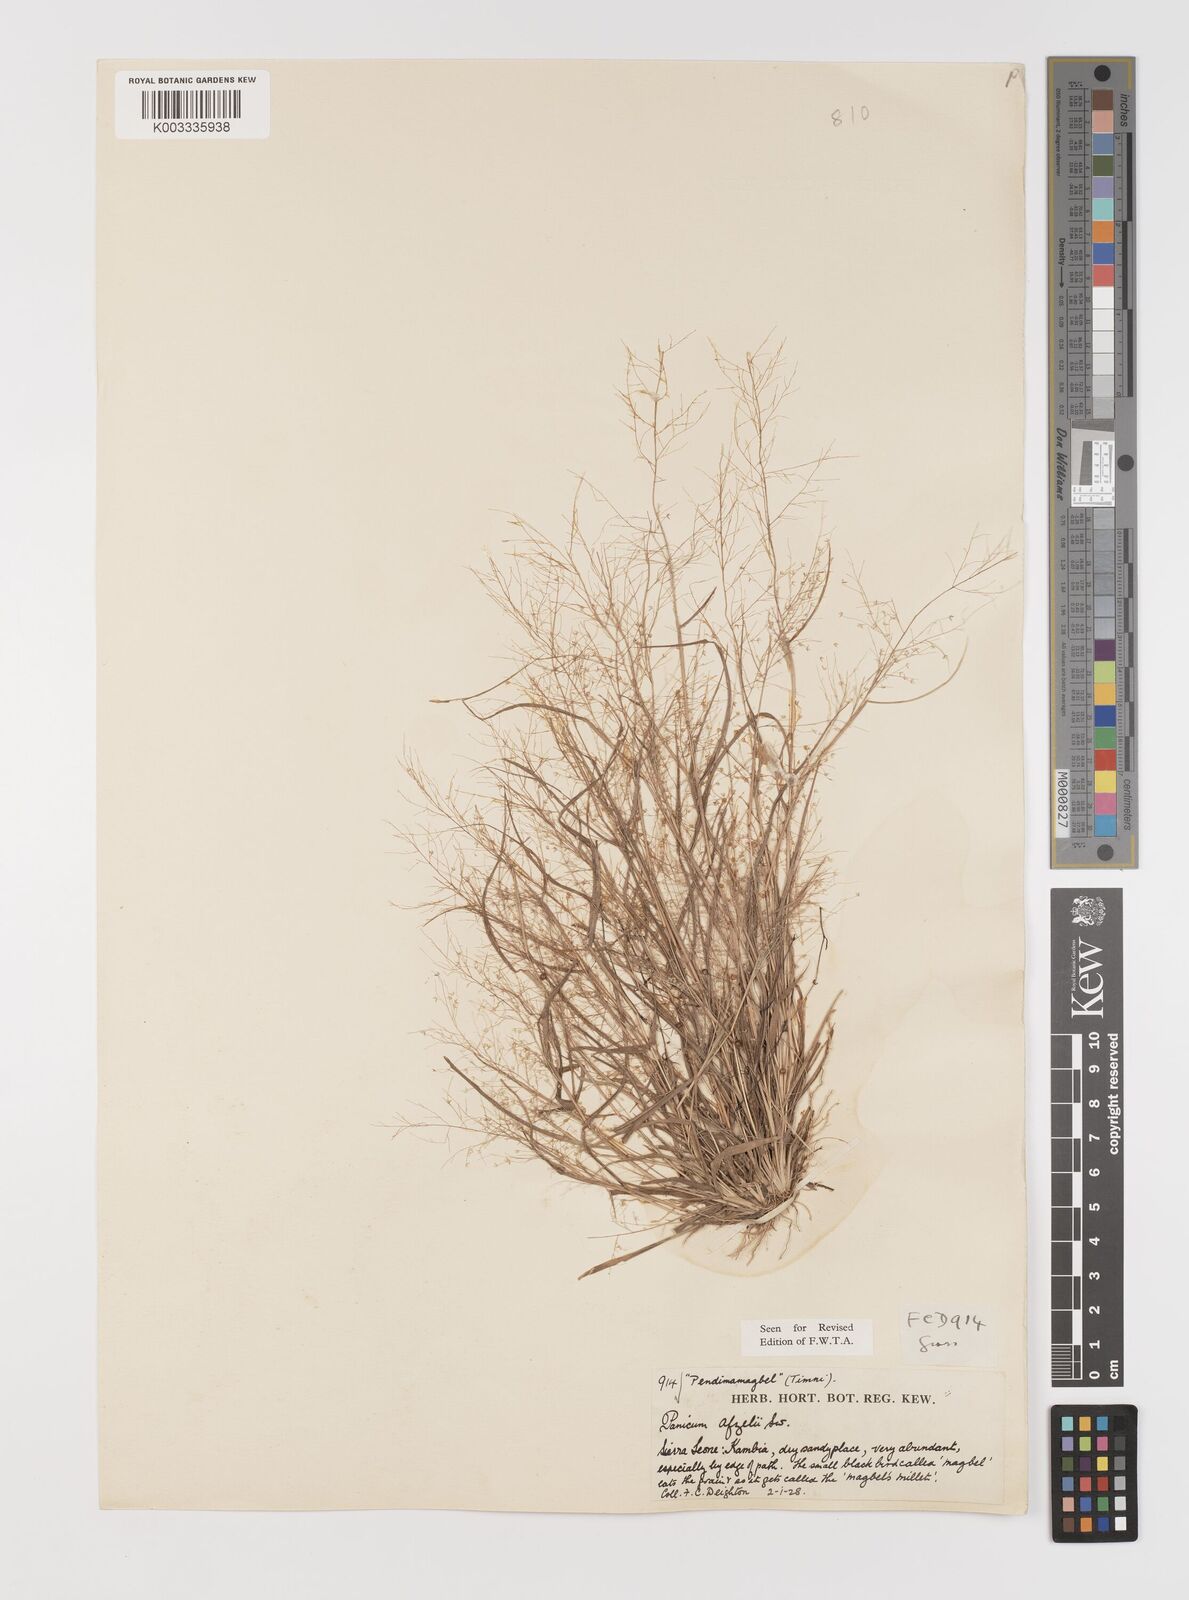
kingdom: Plantae
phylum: Tracheophyta
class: Liliopsida
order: Poales
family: Poaceae
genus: Panicum
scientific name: Panicum afzelii
